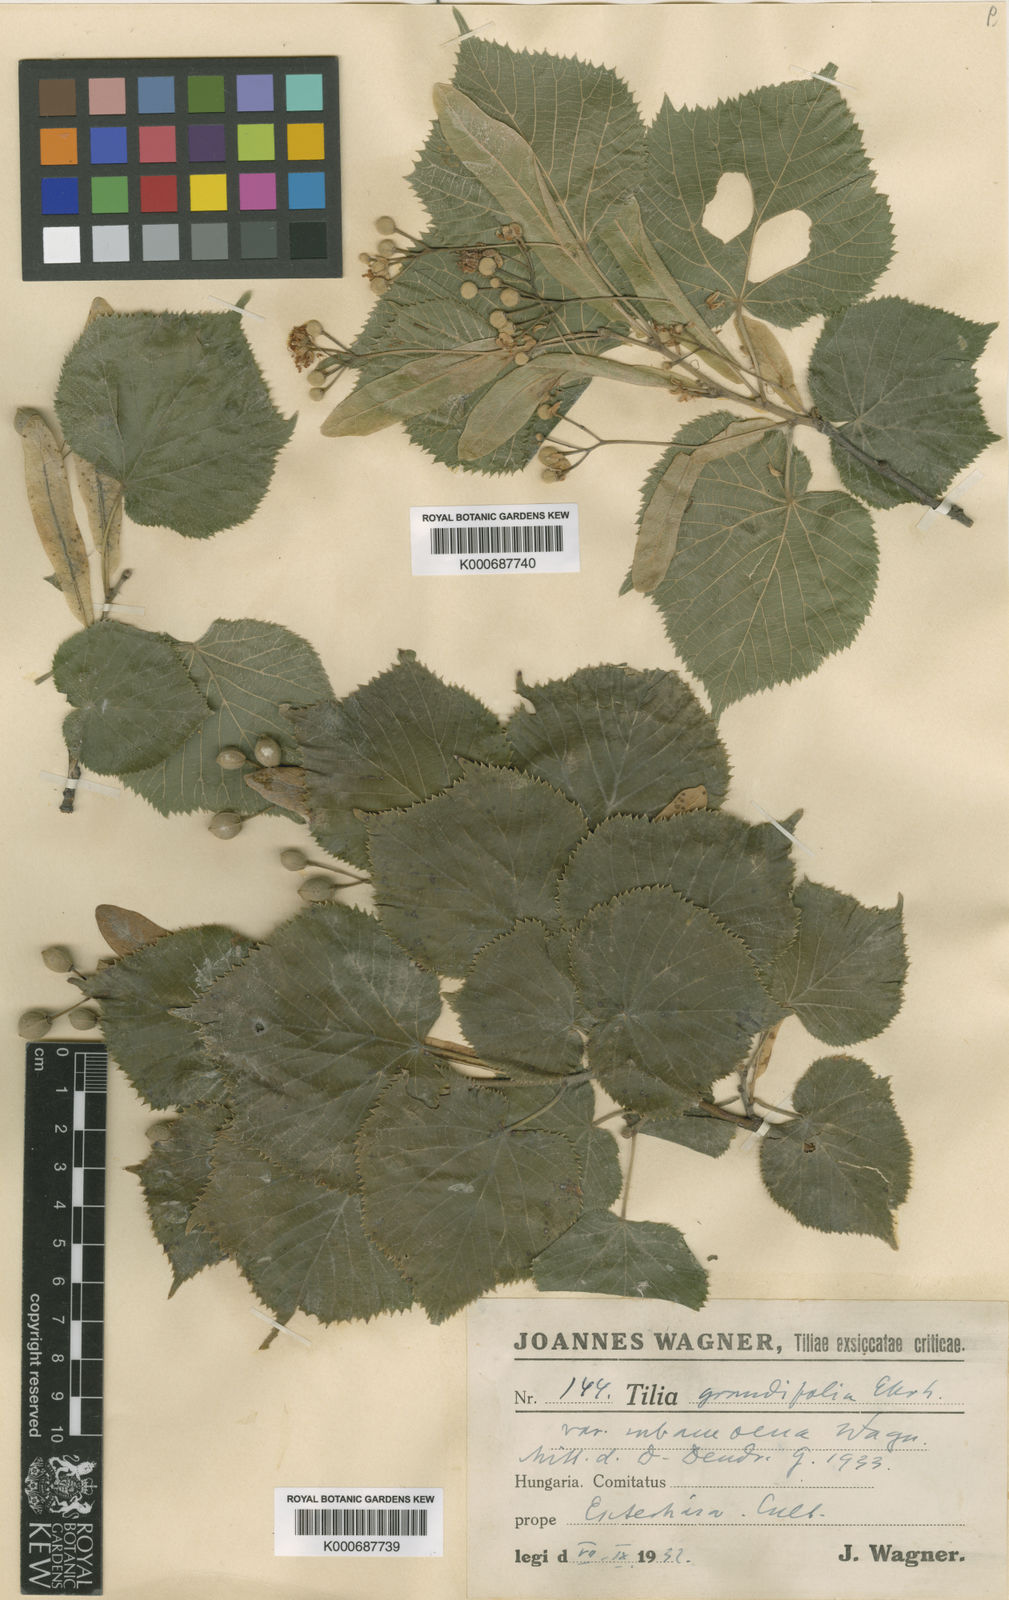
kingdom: Plantae
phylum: Tracheophyta
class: Magnoliopsida
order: Malvales
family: Malvaceae
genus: Tilia
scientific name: Tilia platyphyllos
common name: Large-leaved lime
